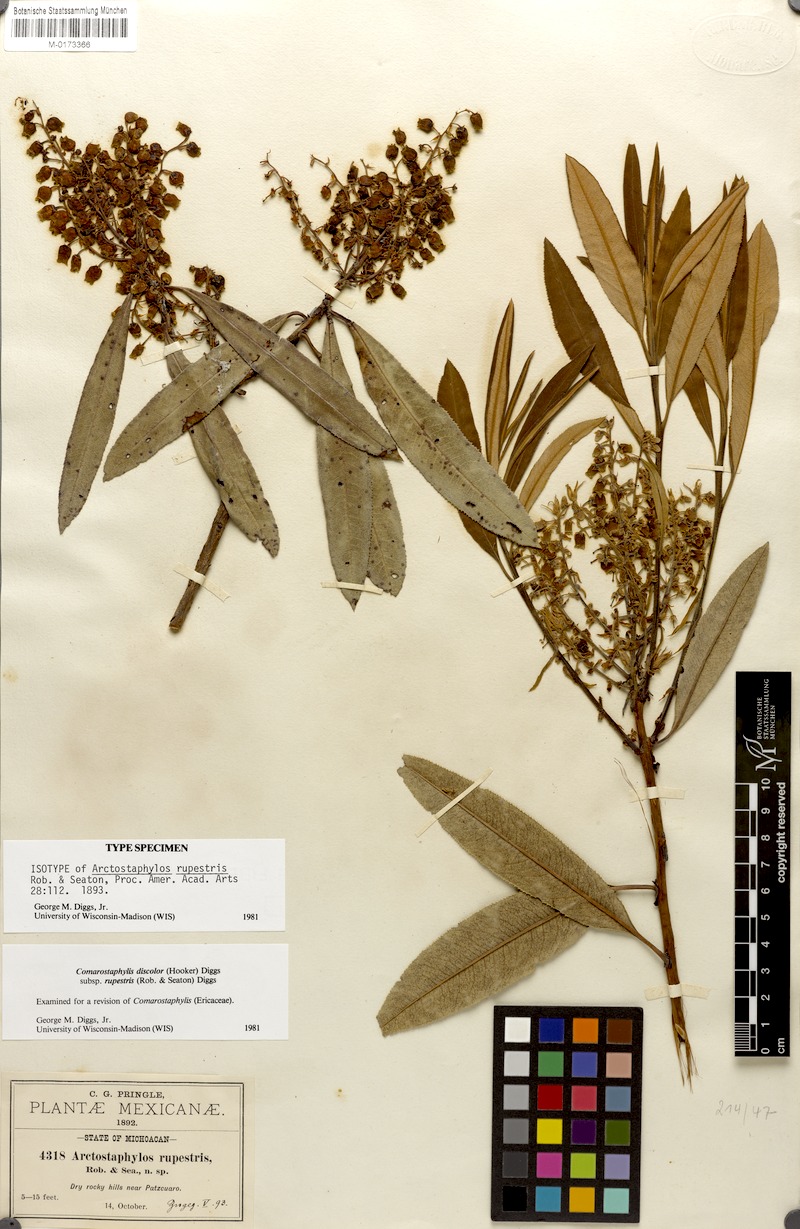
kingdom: Plantae
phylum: Tracheophyta
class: Magnoliopsida
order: Ericales
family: Ericaceae
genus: Comarostaphylis
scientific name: Comarostaphylis discolor
